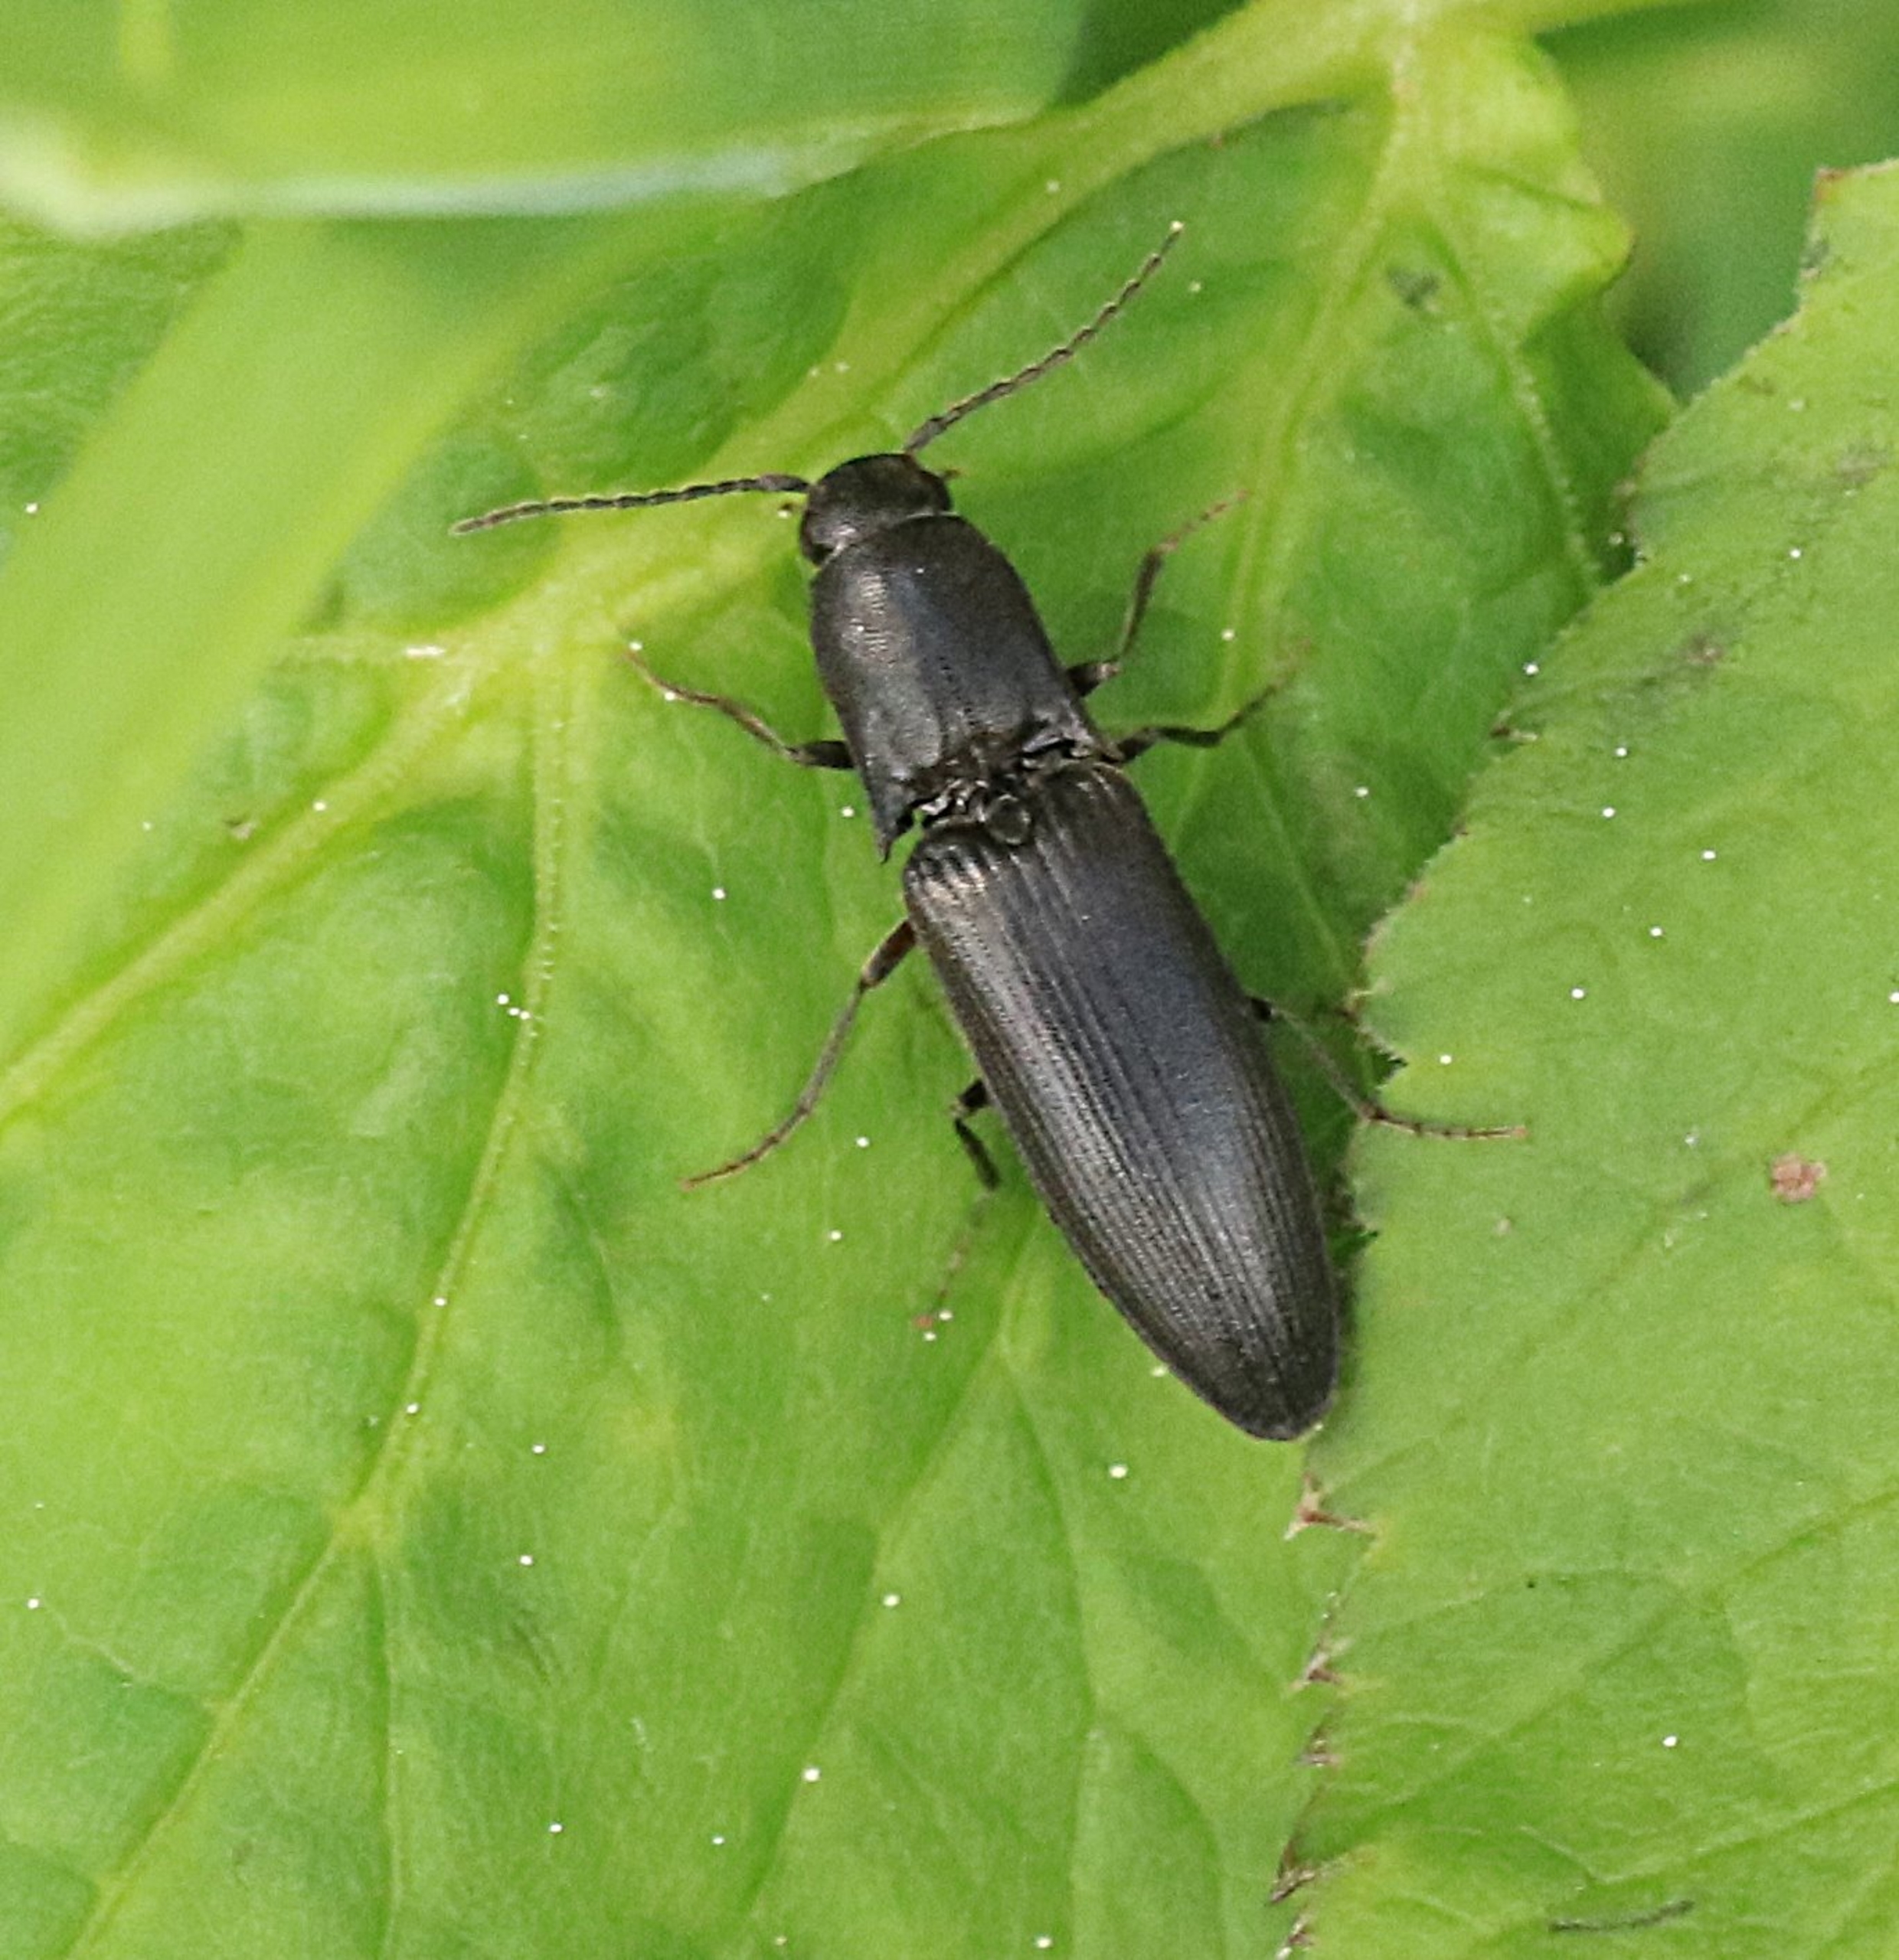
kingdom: Animalia
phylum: Arthropoda
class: Insecta
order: Coleoptera
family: Elateridae
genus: Ectinus
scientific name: Ectinus aterrimus
